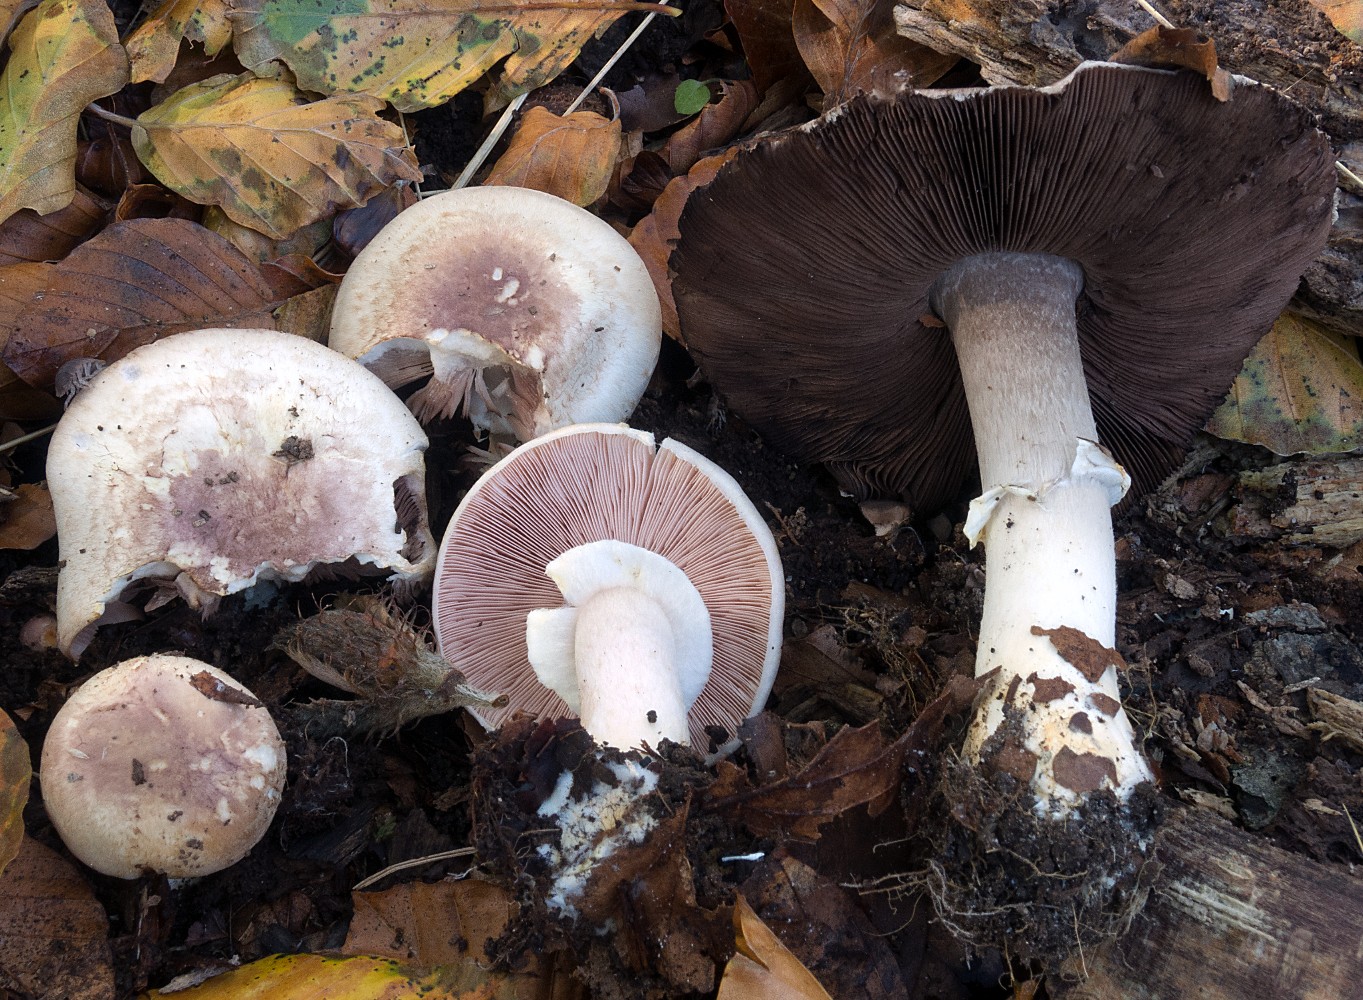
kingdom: Fungi
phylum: Basidiomycota
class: Agaricomycetes
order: Agaricales
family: Agaricaceae
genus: Agaricus
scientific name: Agaricus brunneolus
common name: purpur-champignon
